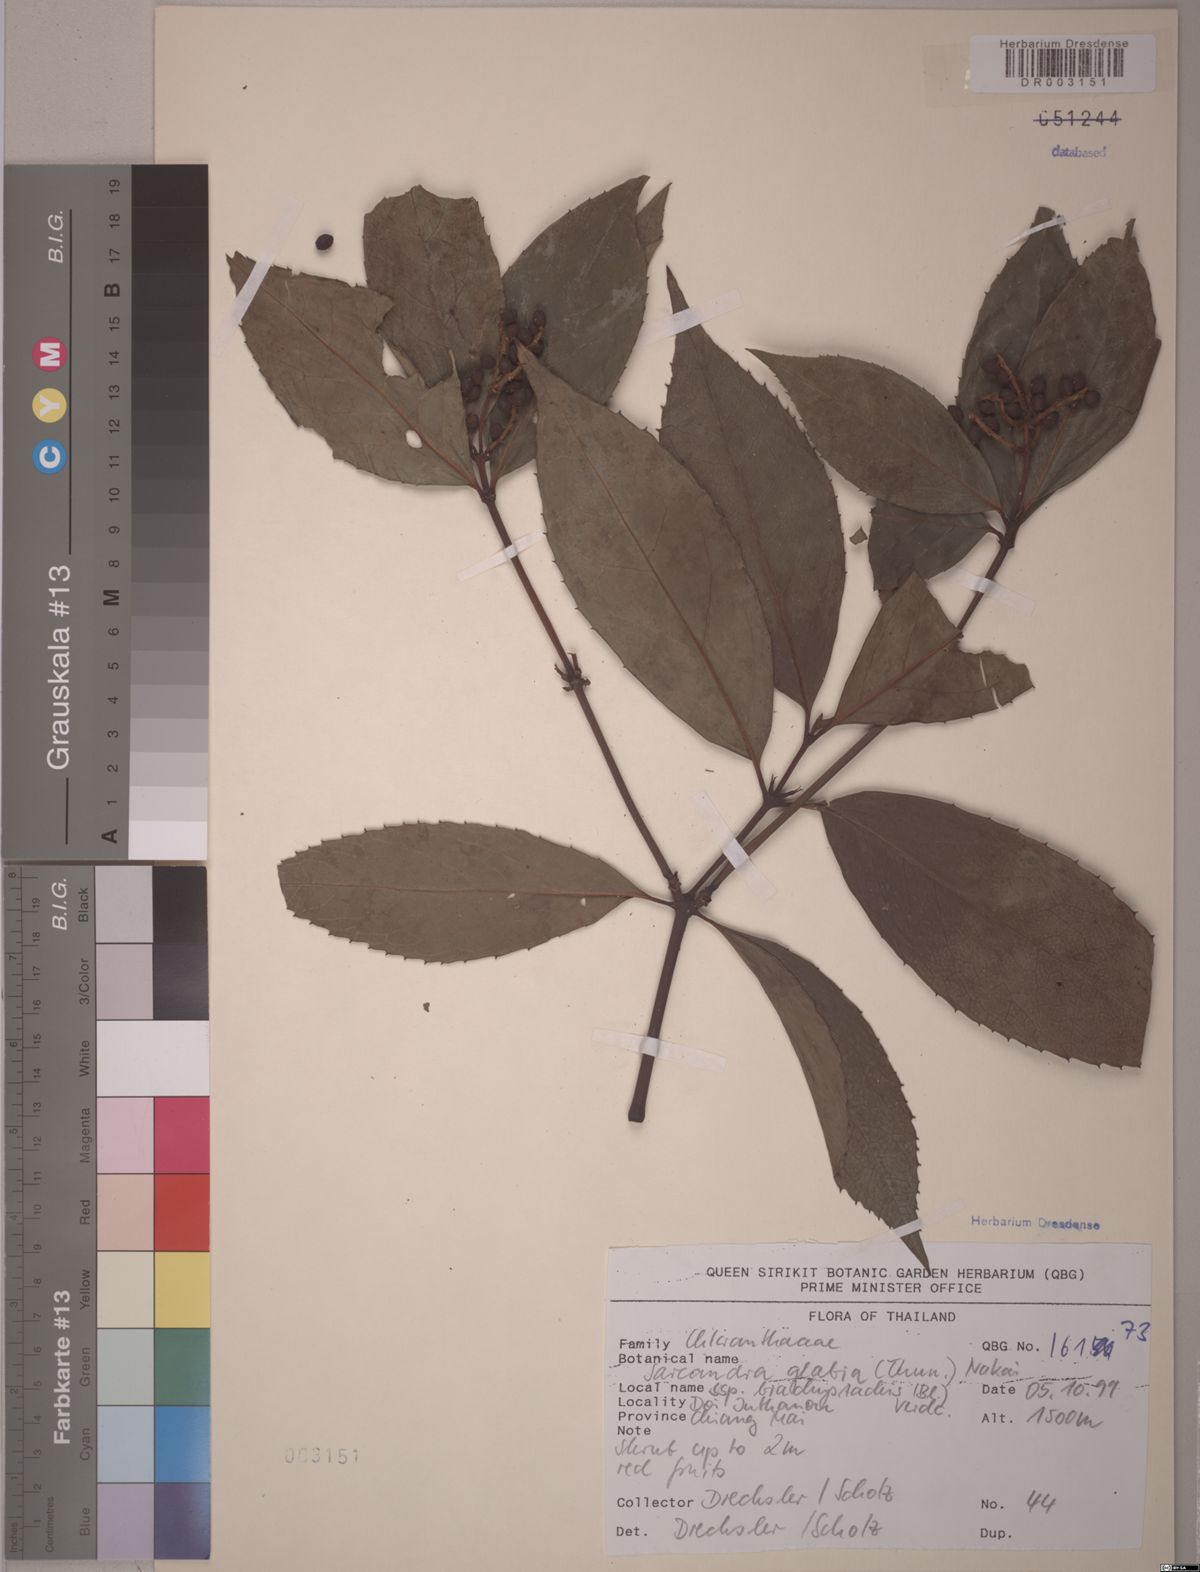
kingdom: Plantae
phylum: Tracheophyta
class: Magnoliopsida
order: Chloranthales
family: Chloranthaceae
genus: Sarcandra
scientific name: Sarcandra glabra
